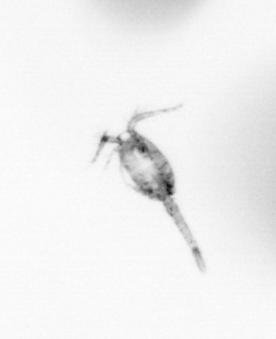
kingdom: Animalia
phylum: Arthropoda
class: Copepoda
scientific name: Copepoda
